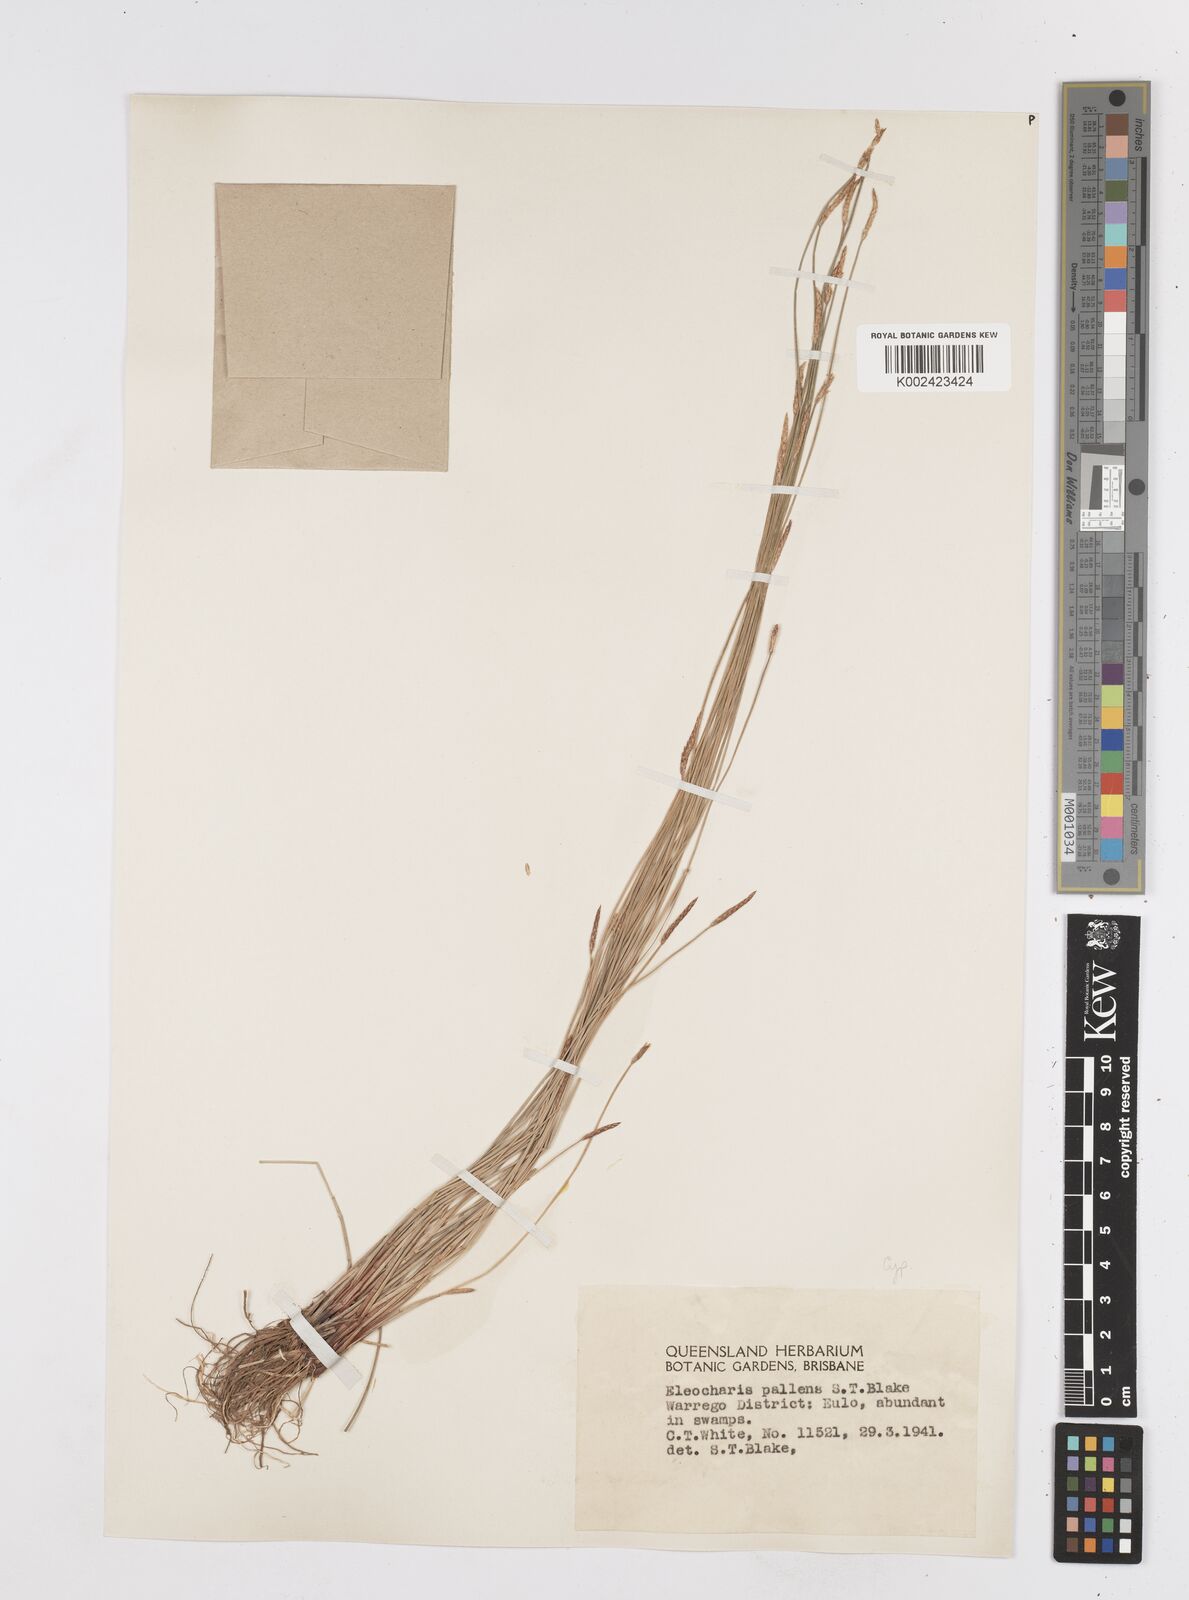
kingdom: Plantae
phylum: Tracheophyta
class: Liliopsida
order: Poales
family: Cyperaceae
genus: Eleocharis
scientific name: Eleocharis acuta
